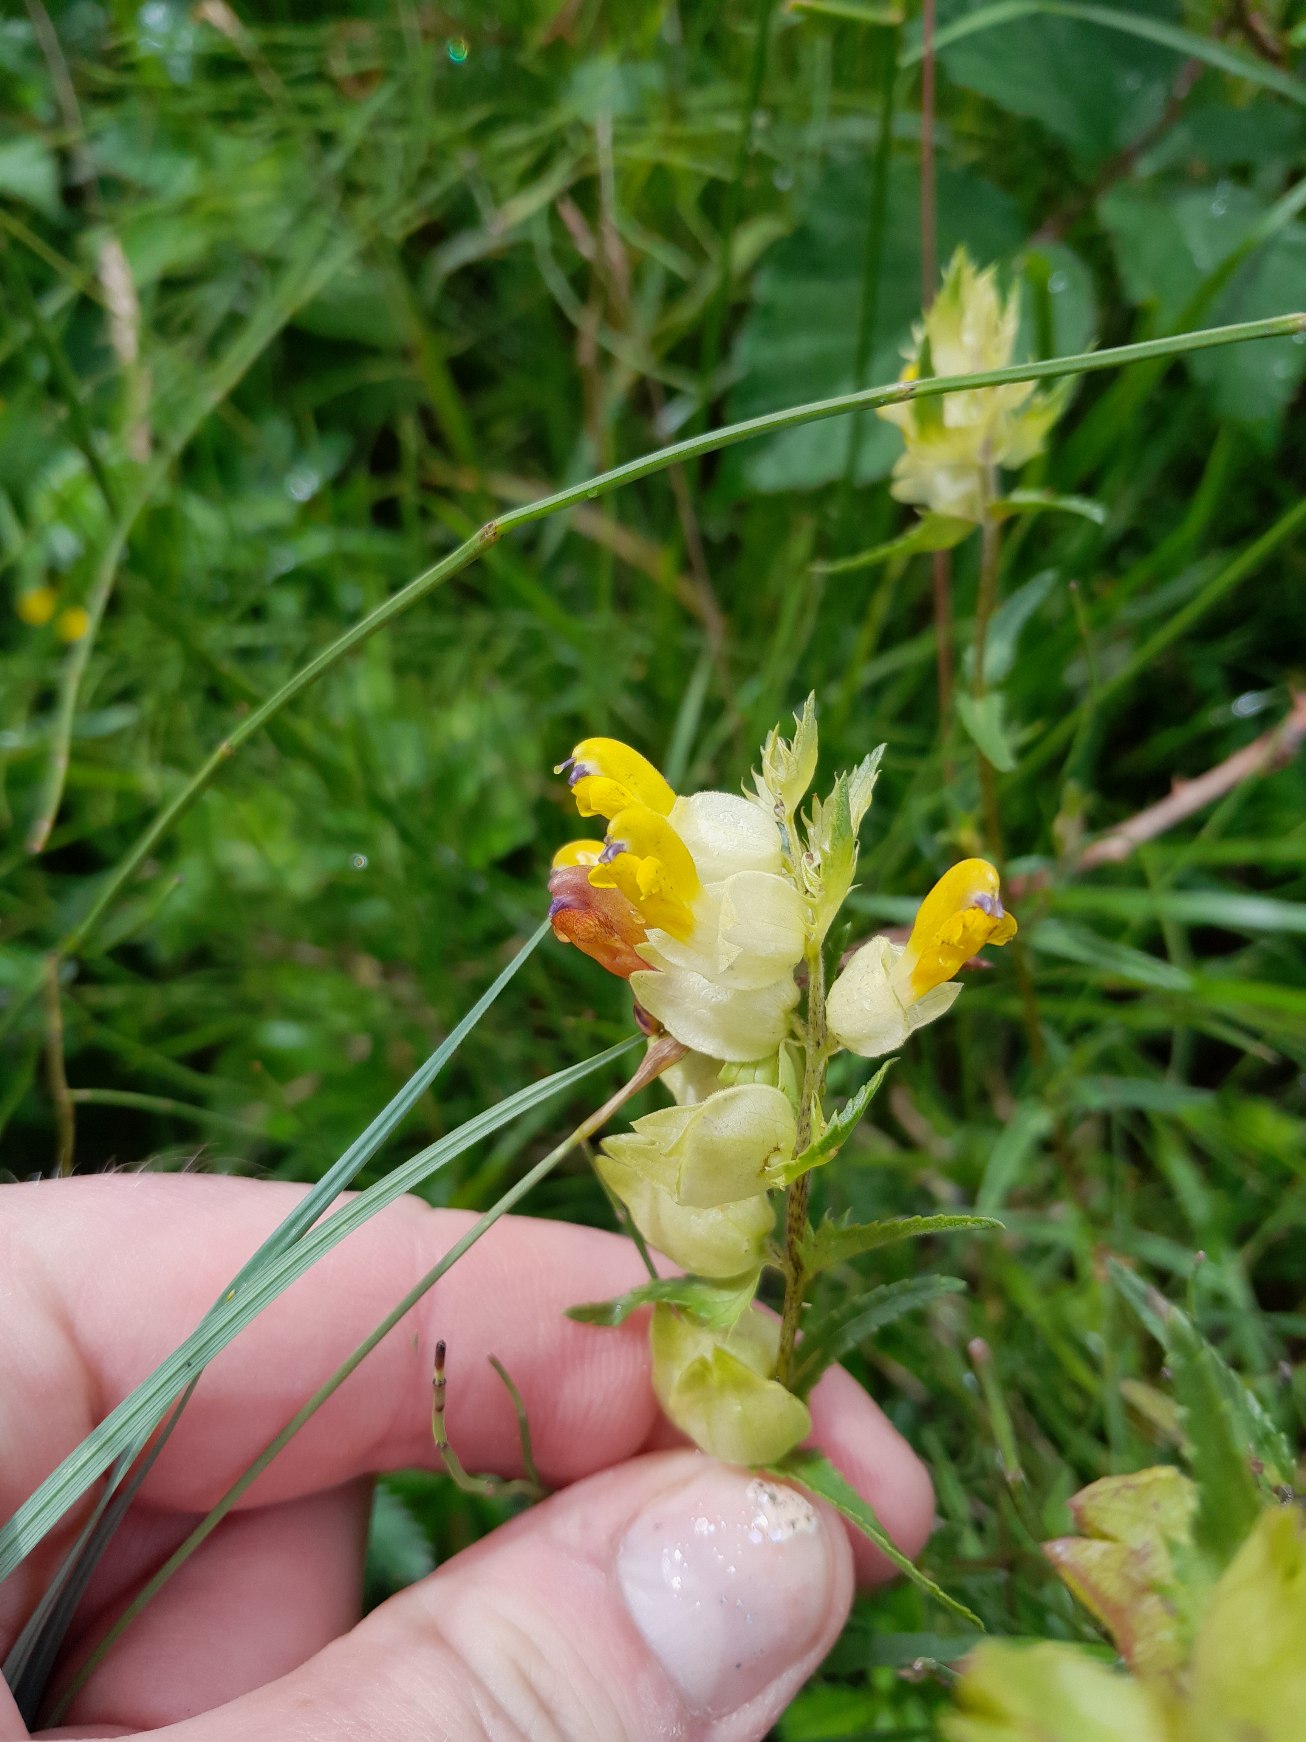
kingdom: Plantae
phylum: Tracheophyta
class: Magnoliopsida
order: Lamiales
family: Orobanchaceae
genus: Rhinanthus
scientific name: Rhinanthus
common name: Stor skjaller
